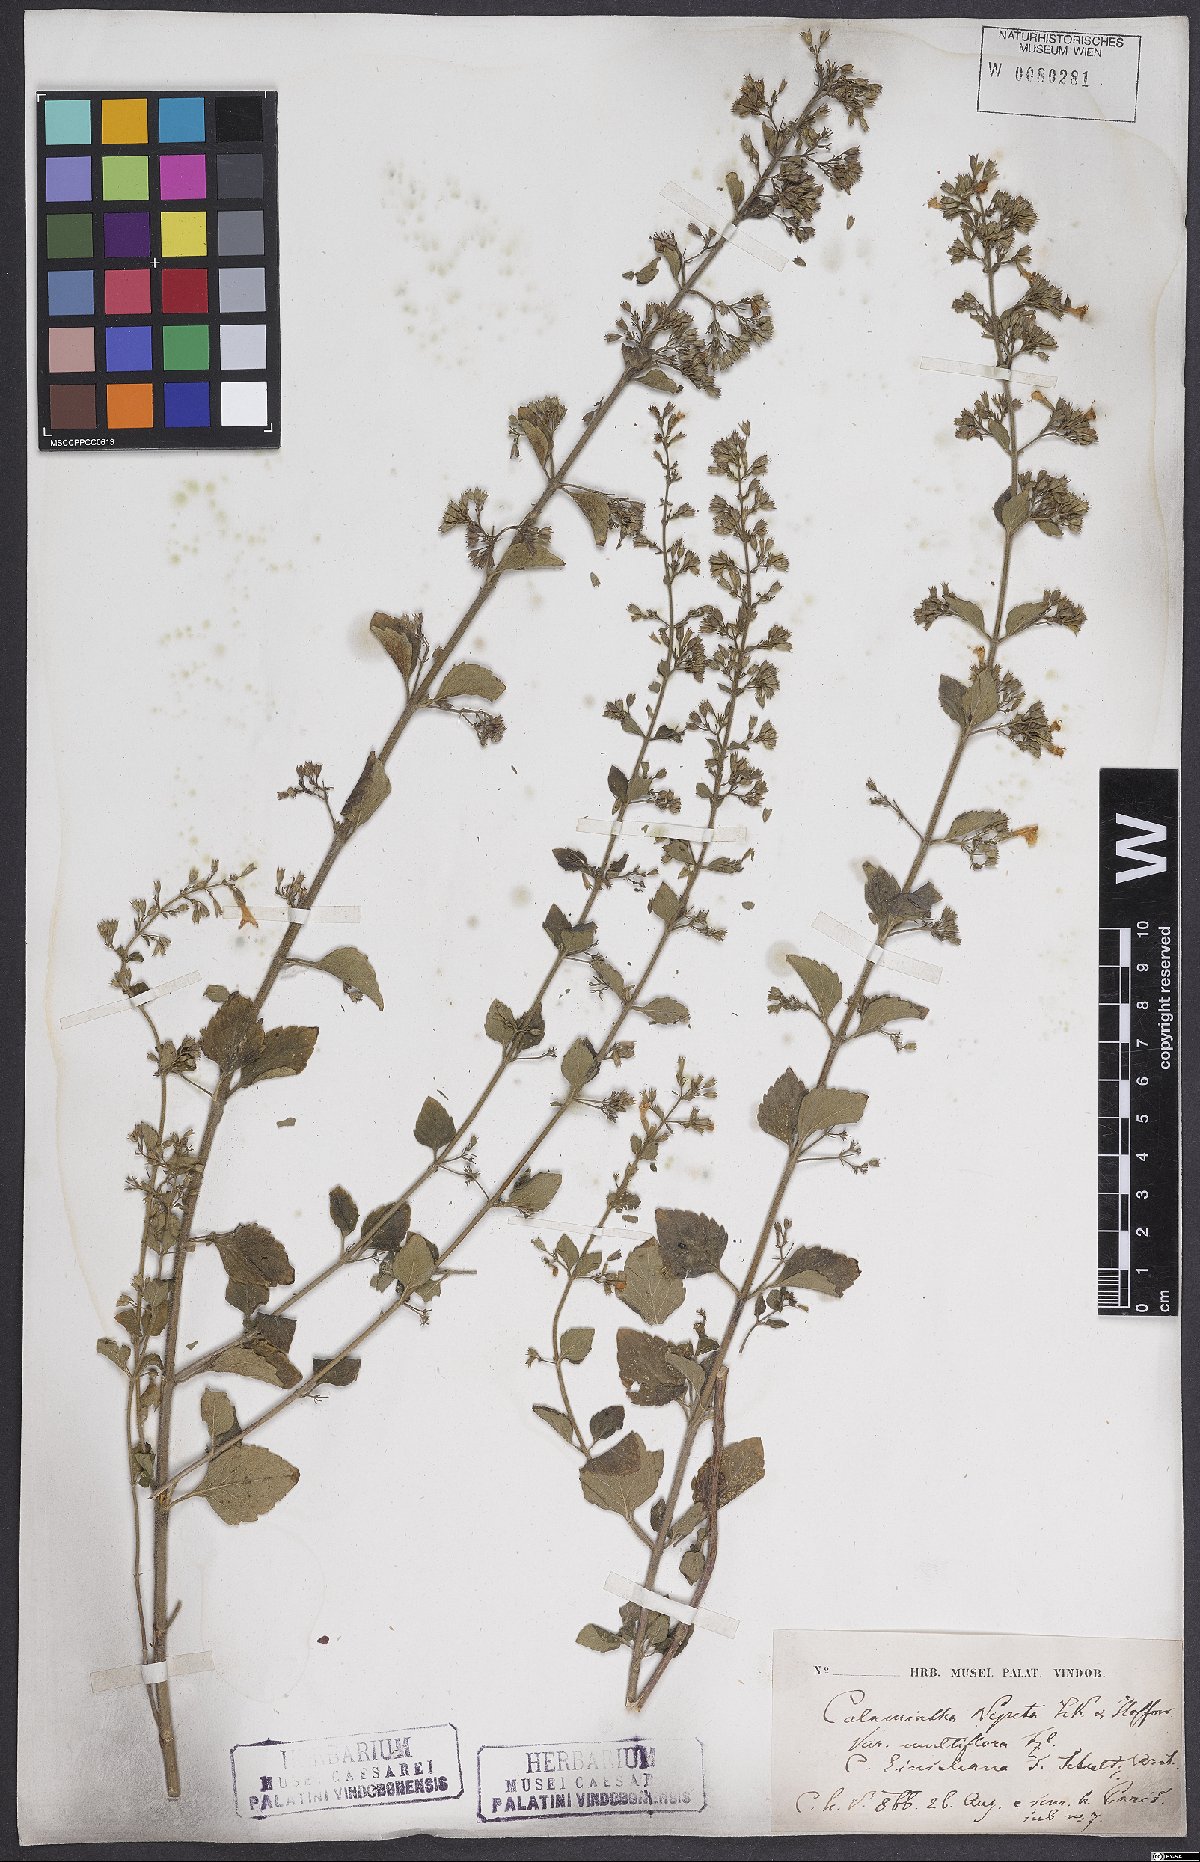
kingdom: Plantae
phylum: Tracheophyta
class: Magnoliopsida
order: Lamiales
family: Lamiaceae
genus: Clinopodium
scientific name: Clinopodium nepeta
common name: Lesser calamint
